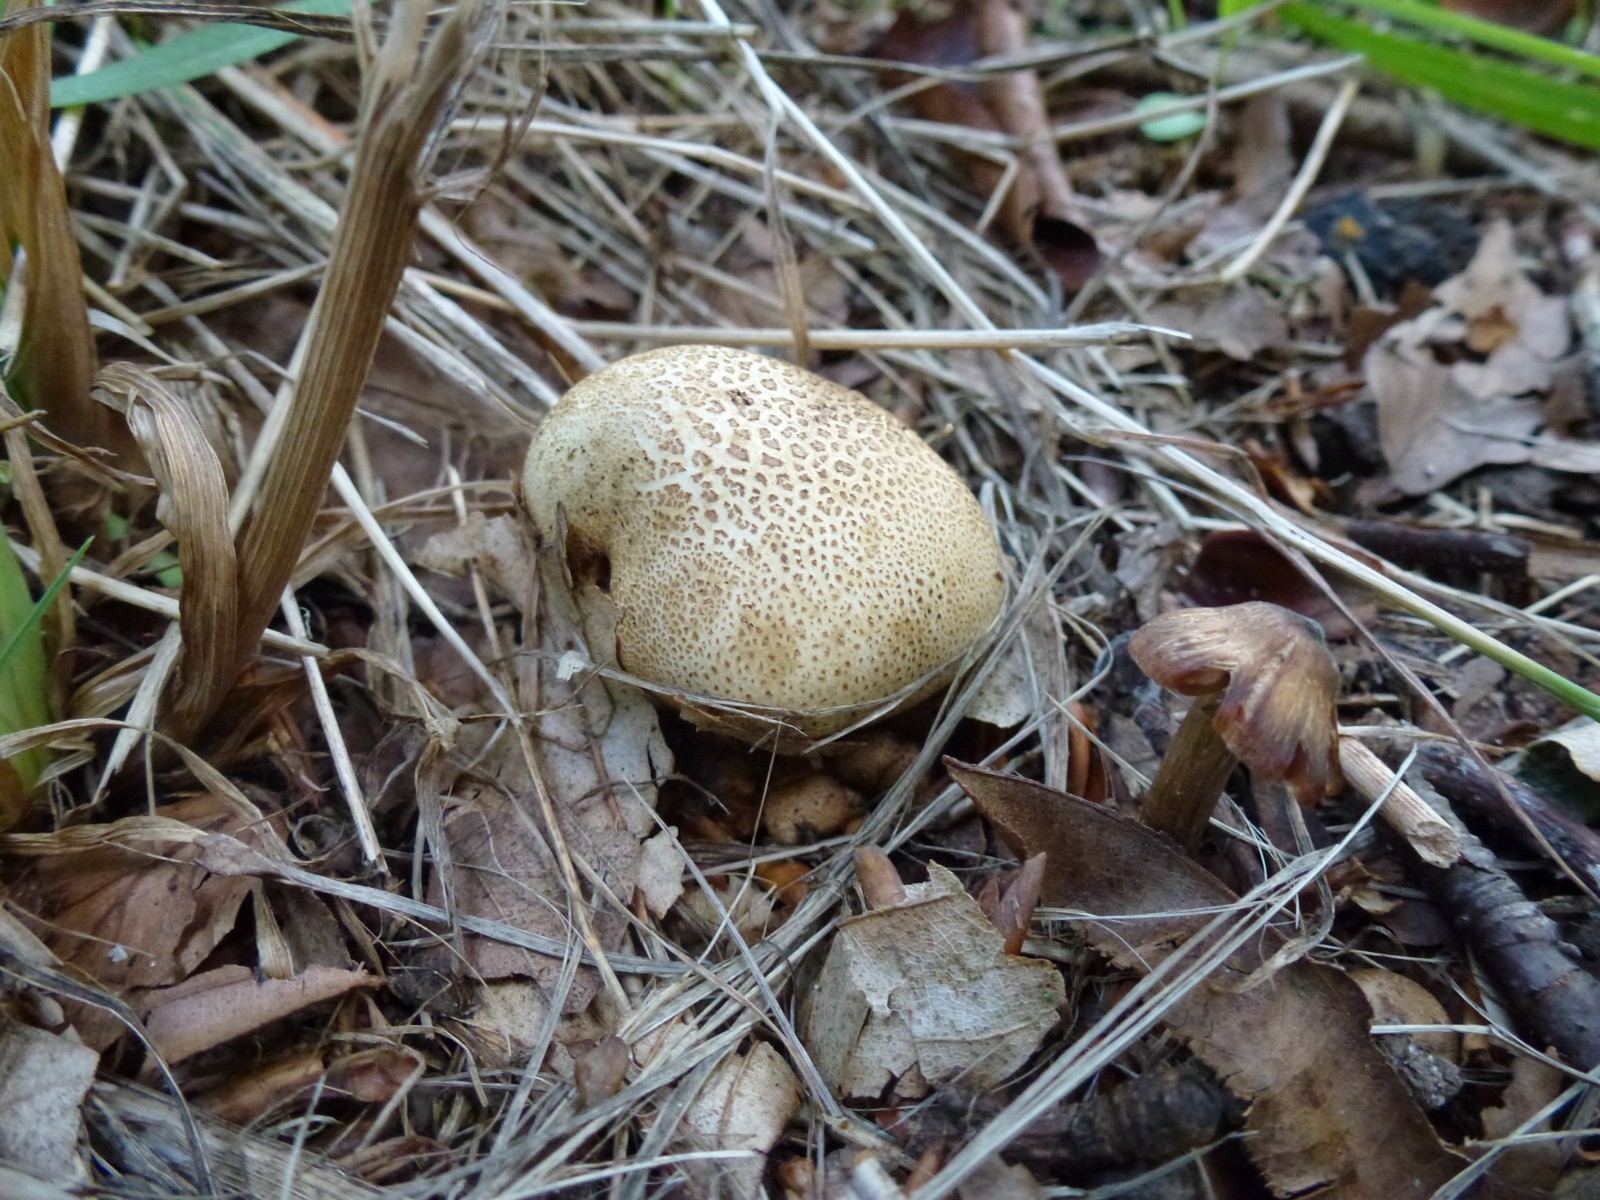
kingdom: Fungi
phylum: Basidiomycota
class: Agaricomycetes
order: Boletales
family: Sclerodermataceae
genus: Scleroderma
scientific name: Scleroderma citrinum
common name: almindelig bruskbold
